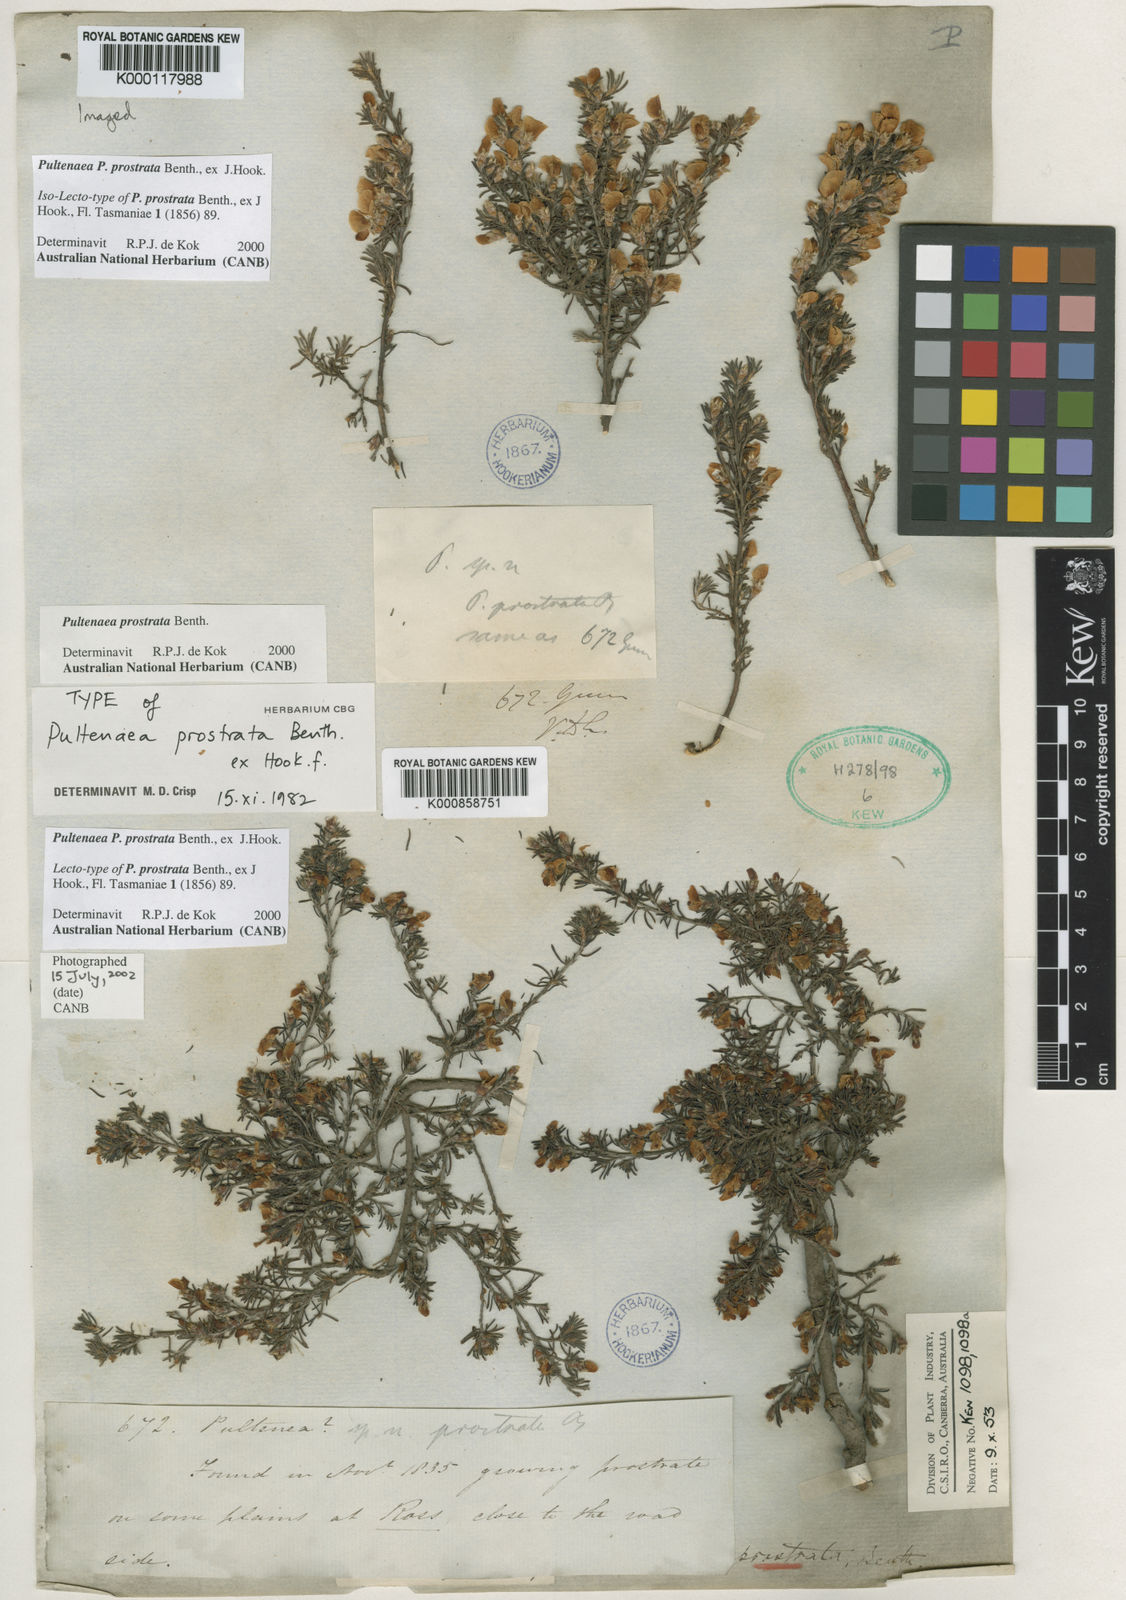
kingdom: Plantae
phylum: Tracheophyta
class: Magnoliopsida
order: Fabales
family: Fabaceae
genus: Pultenaea
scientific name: Pultenaea tenuifolia
